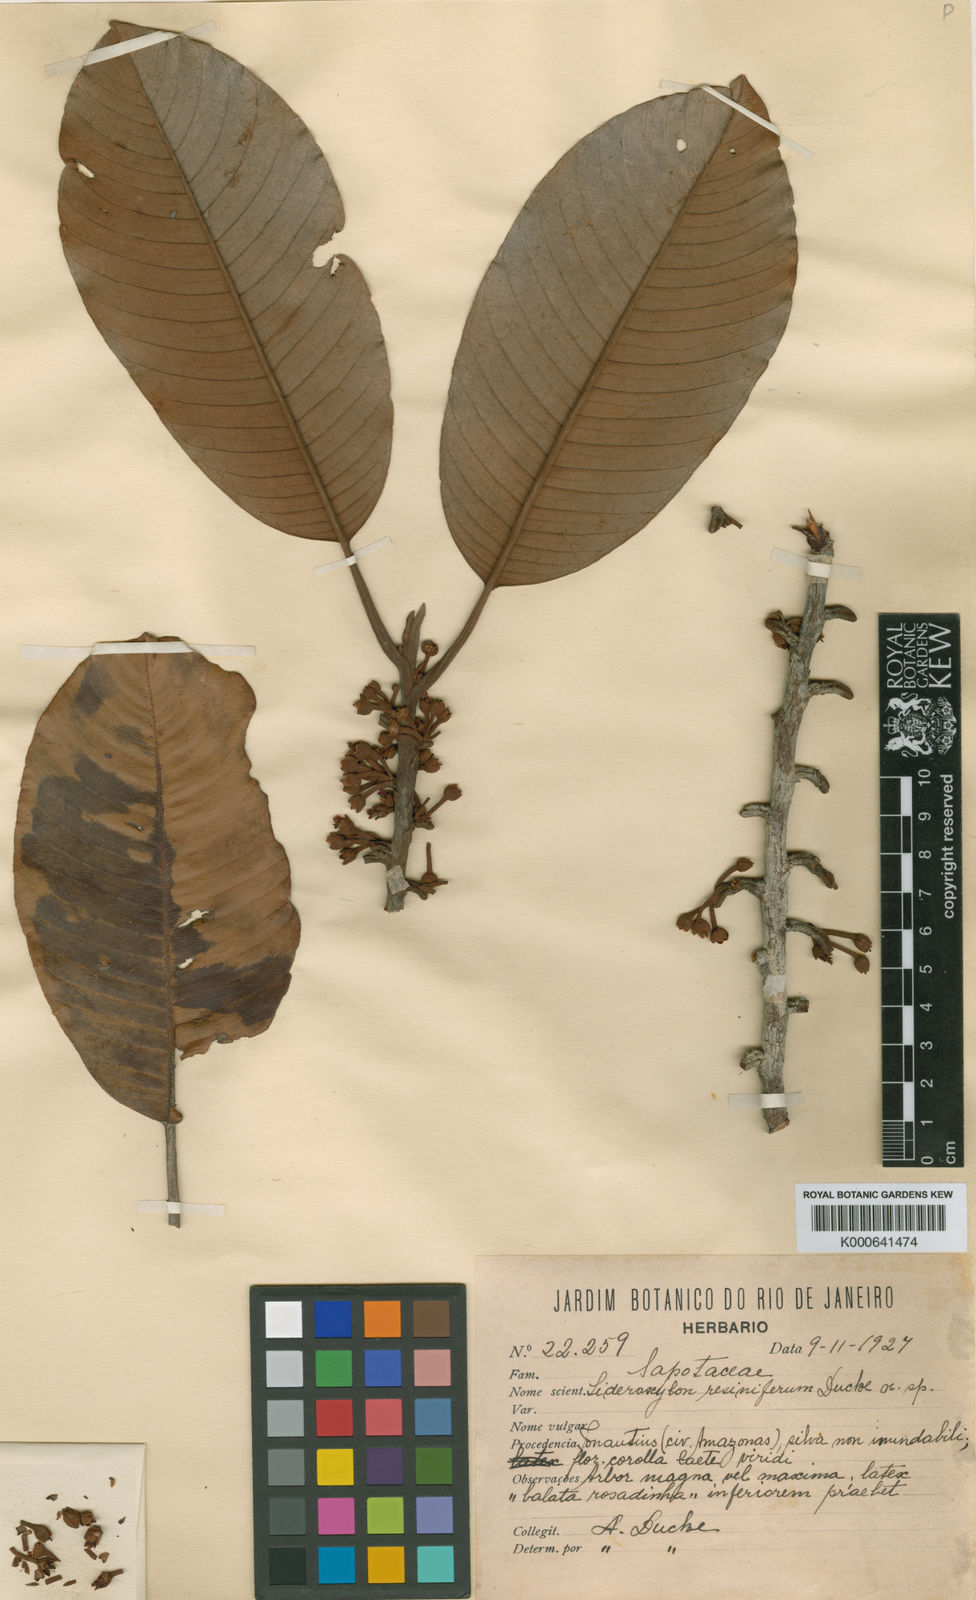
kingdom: Plantae
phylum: Tracheophyta
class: Magnoliopsida
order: Ericales
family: Sapotaceae
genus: Micropholis
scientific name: Micropholis resinifera
